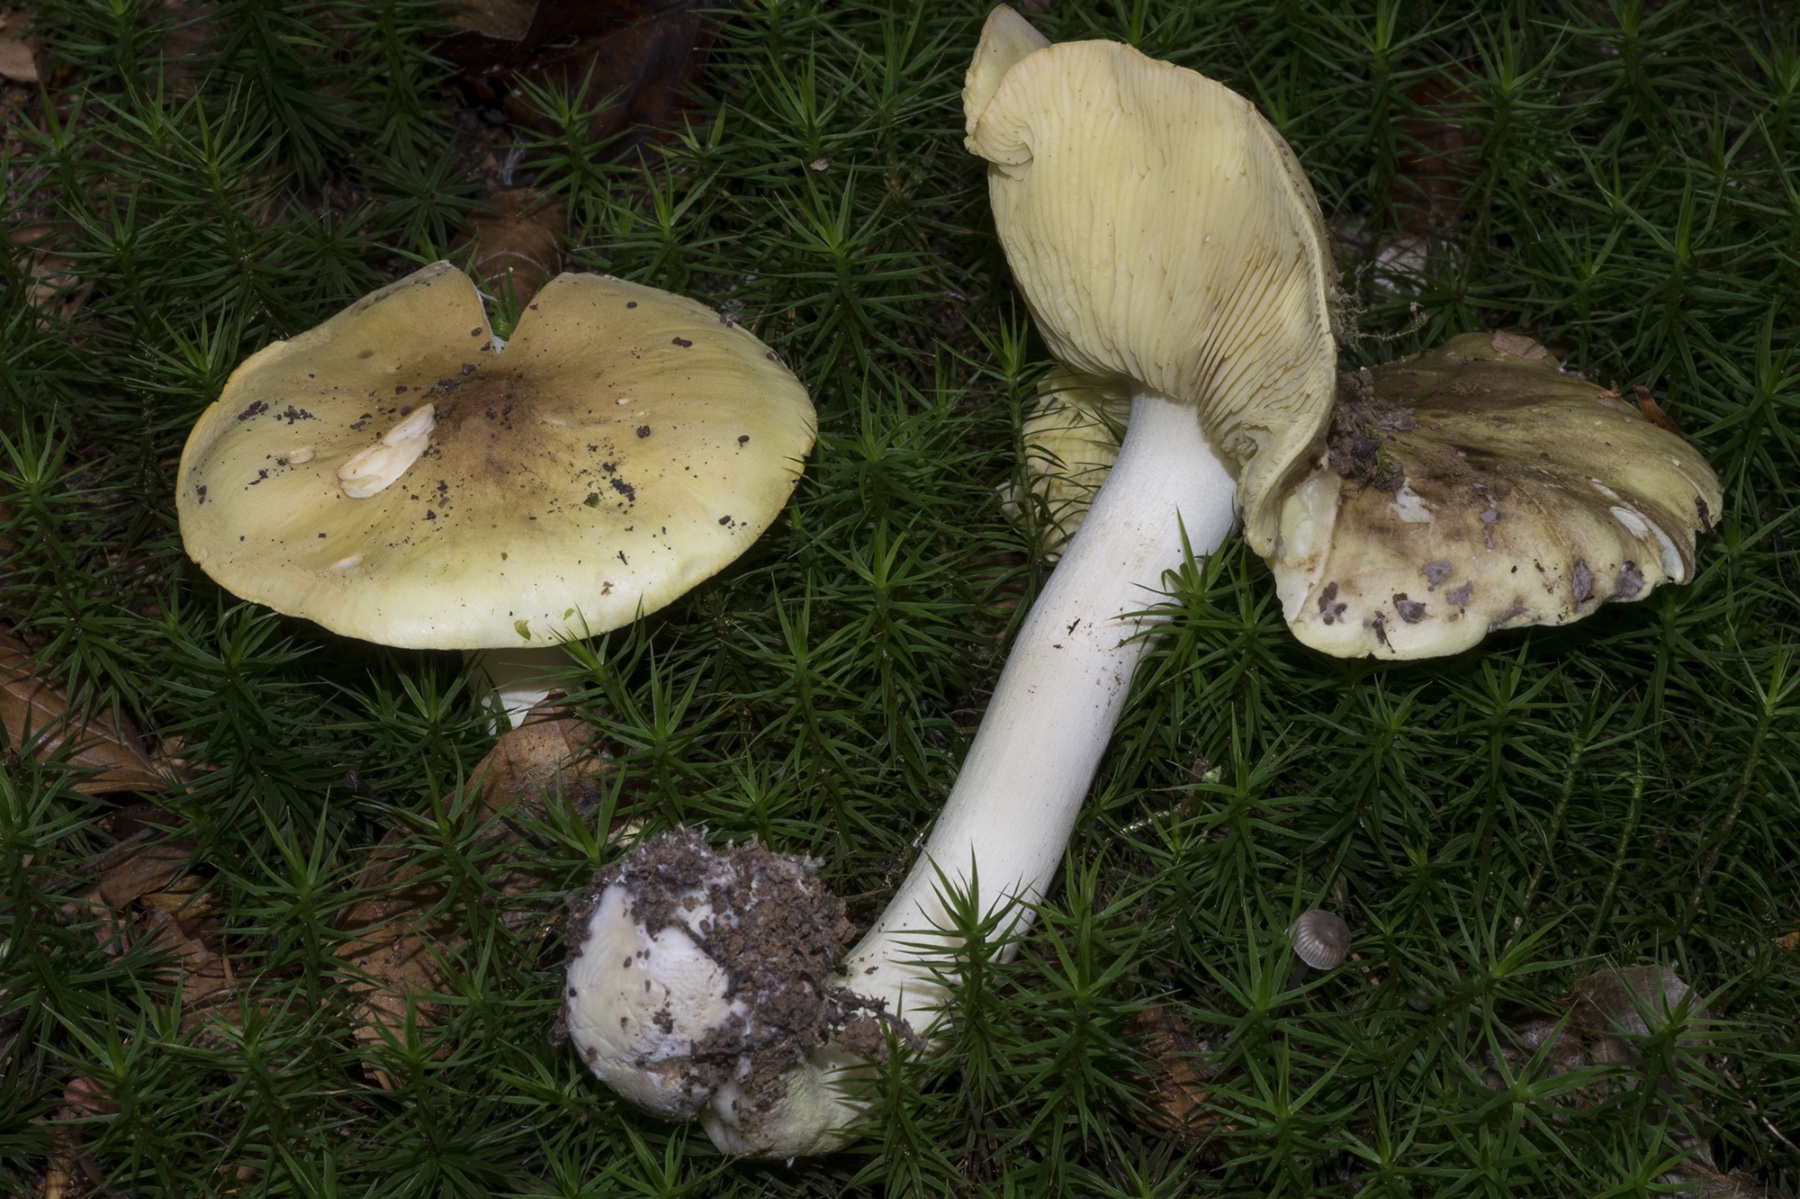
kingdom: Fungi
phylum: Basidiomycota
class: Agaricomycetes
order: Agaricales
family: Tricholomataceae
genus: Tricholoma
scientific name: Tricholoma frondosae
